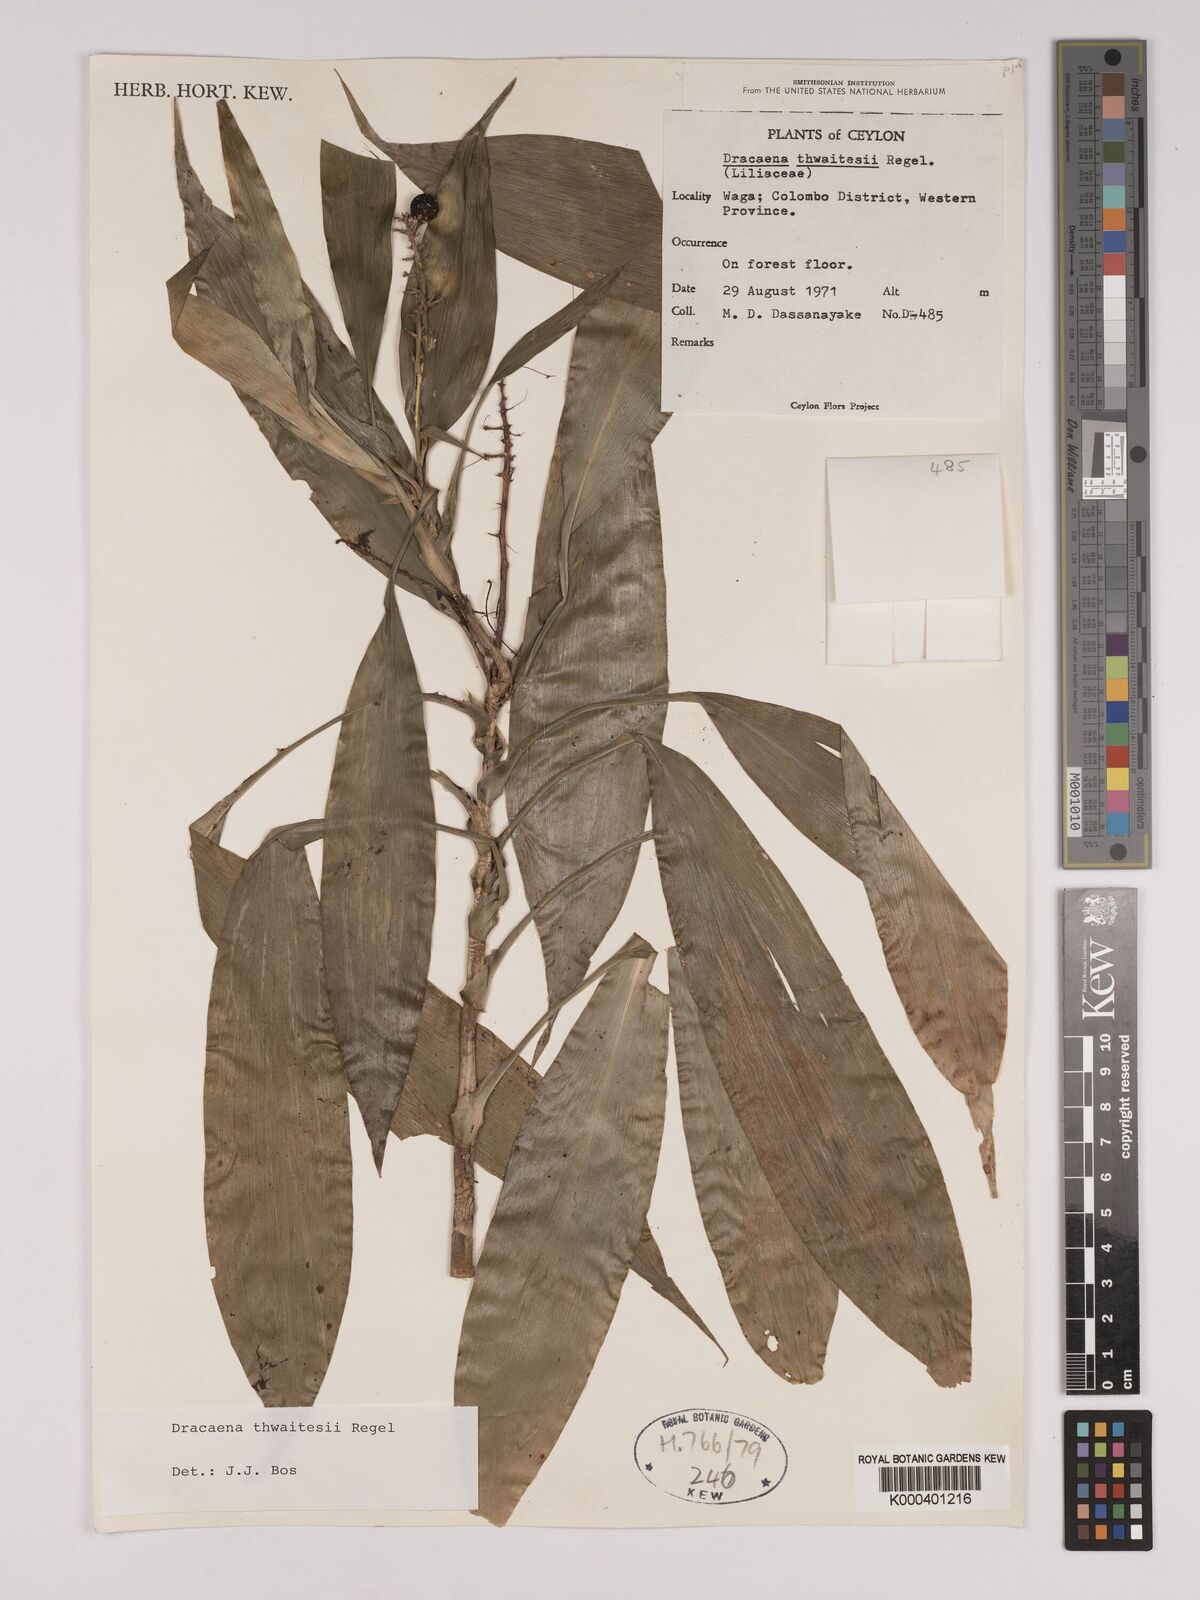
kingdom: Plantae
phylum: Tracheophyta
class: Liliopsida
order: Asparagales
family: Asparagaceae
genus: Dracaena
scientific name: Dracaena thwaitesii
